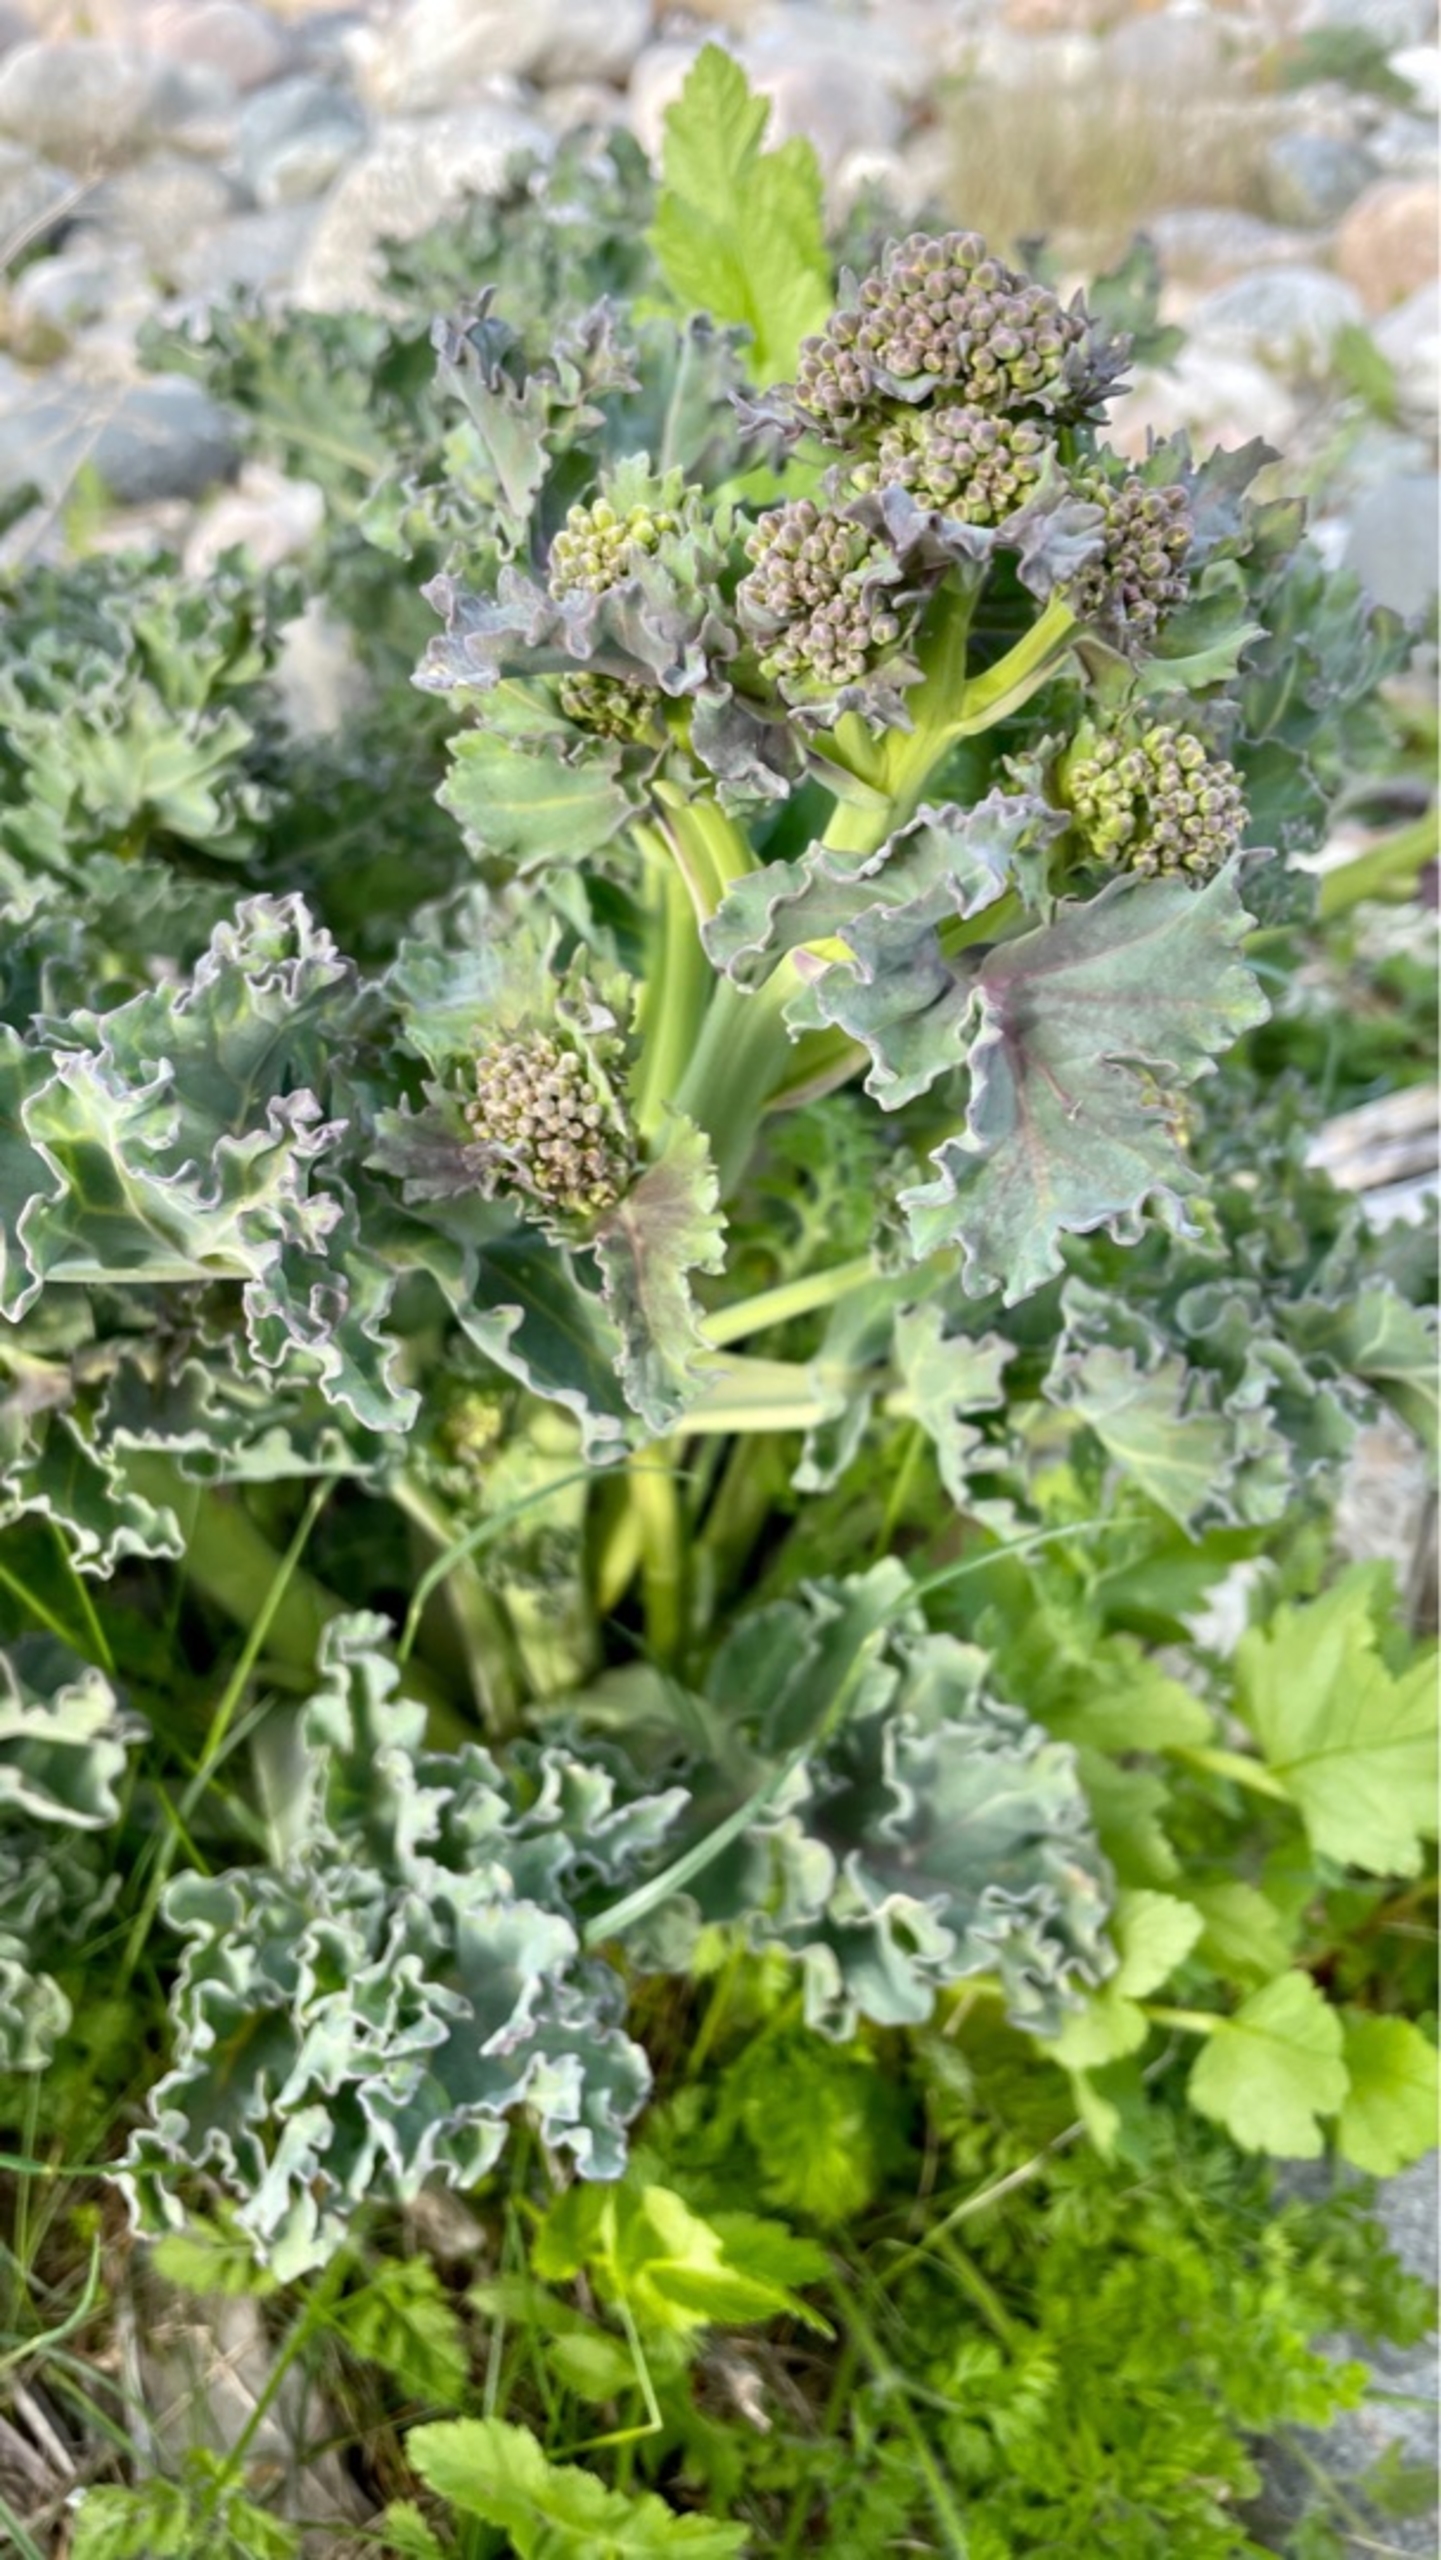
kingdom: Plantae
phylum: Tracheophyta
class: Magnoliopsida
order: Brassicales
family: Brassicaceae
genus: Crambe
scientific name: Crambe maritima
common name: Strandkål
